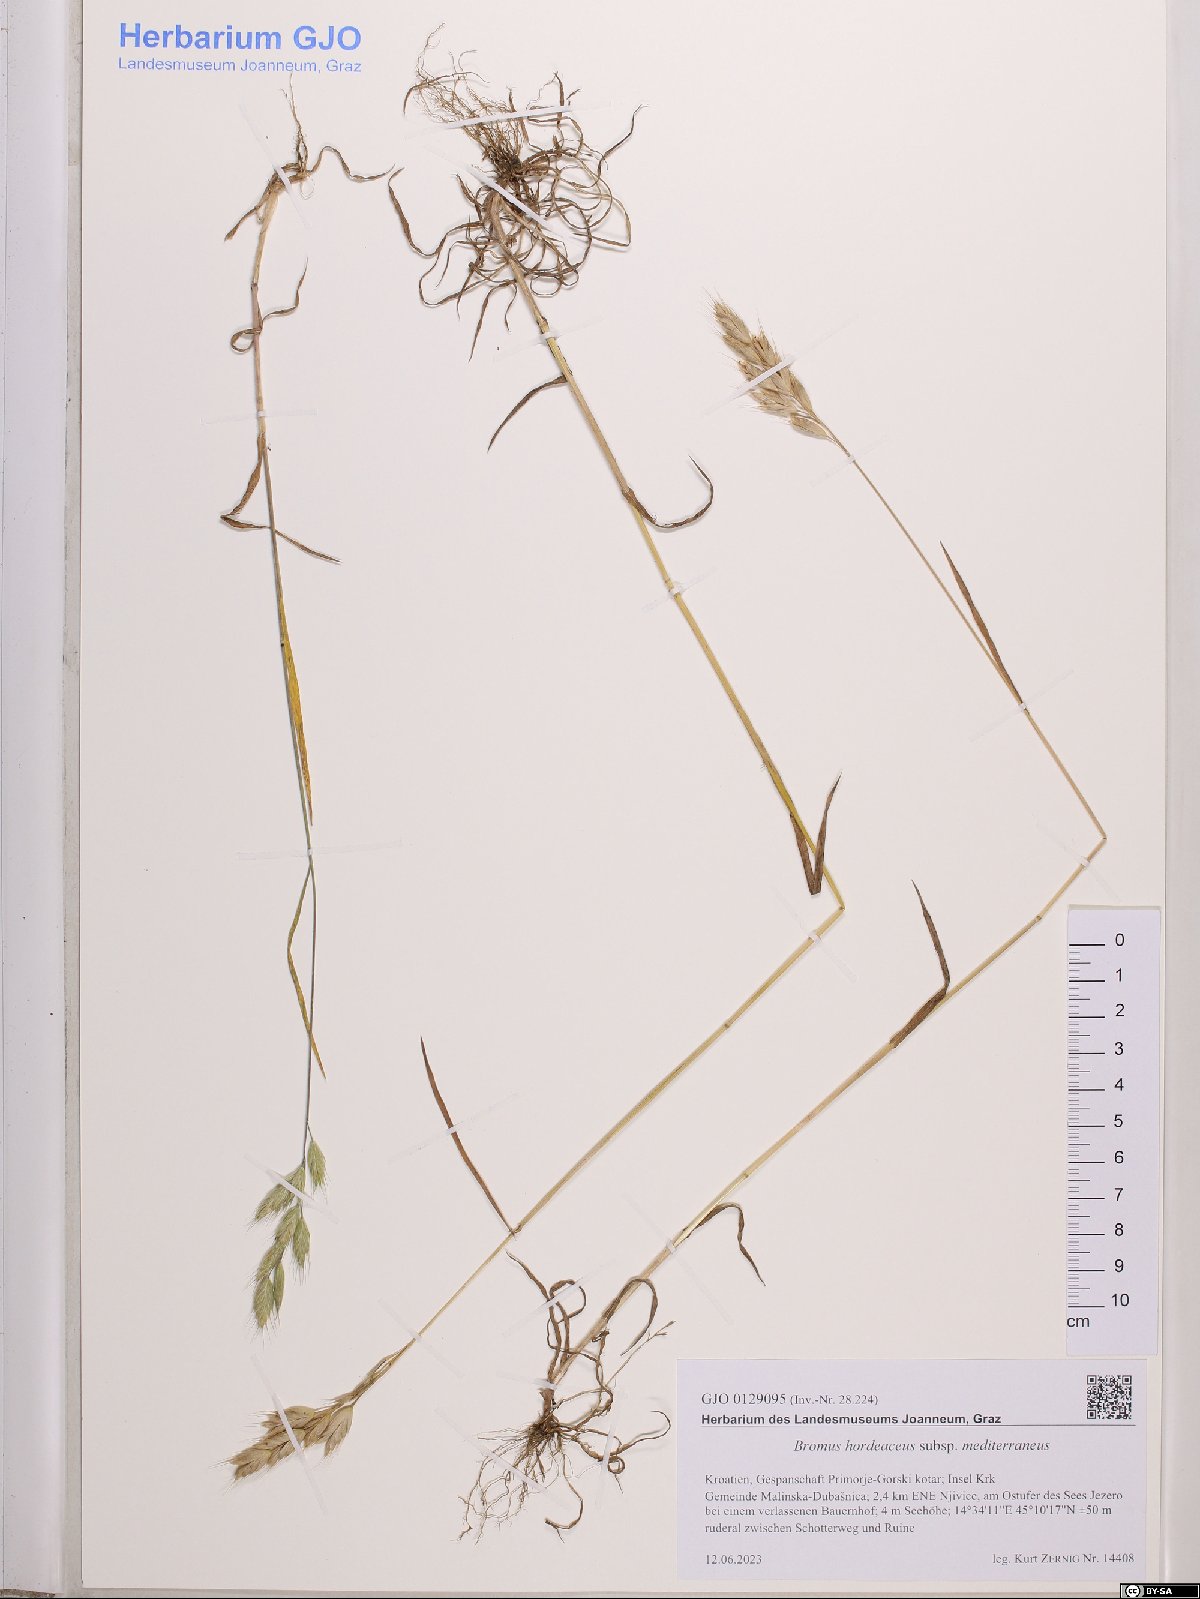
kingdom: Plantae
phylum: Tracheophyta
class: Liliopsida
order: Poales
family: Poaceae
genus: Bromus
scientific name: Bromus hordeaceus
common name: Soft brome
